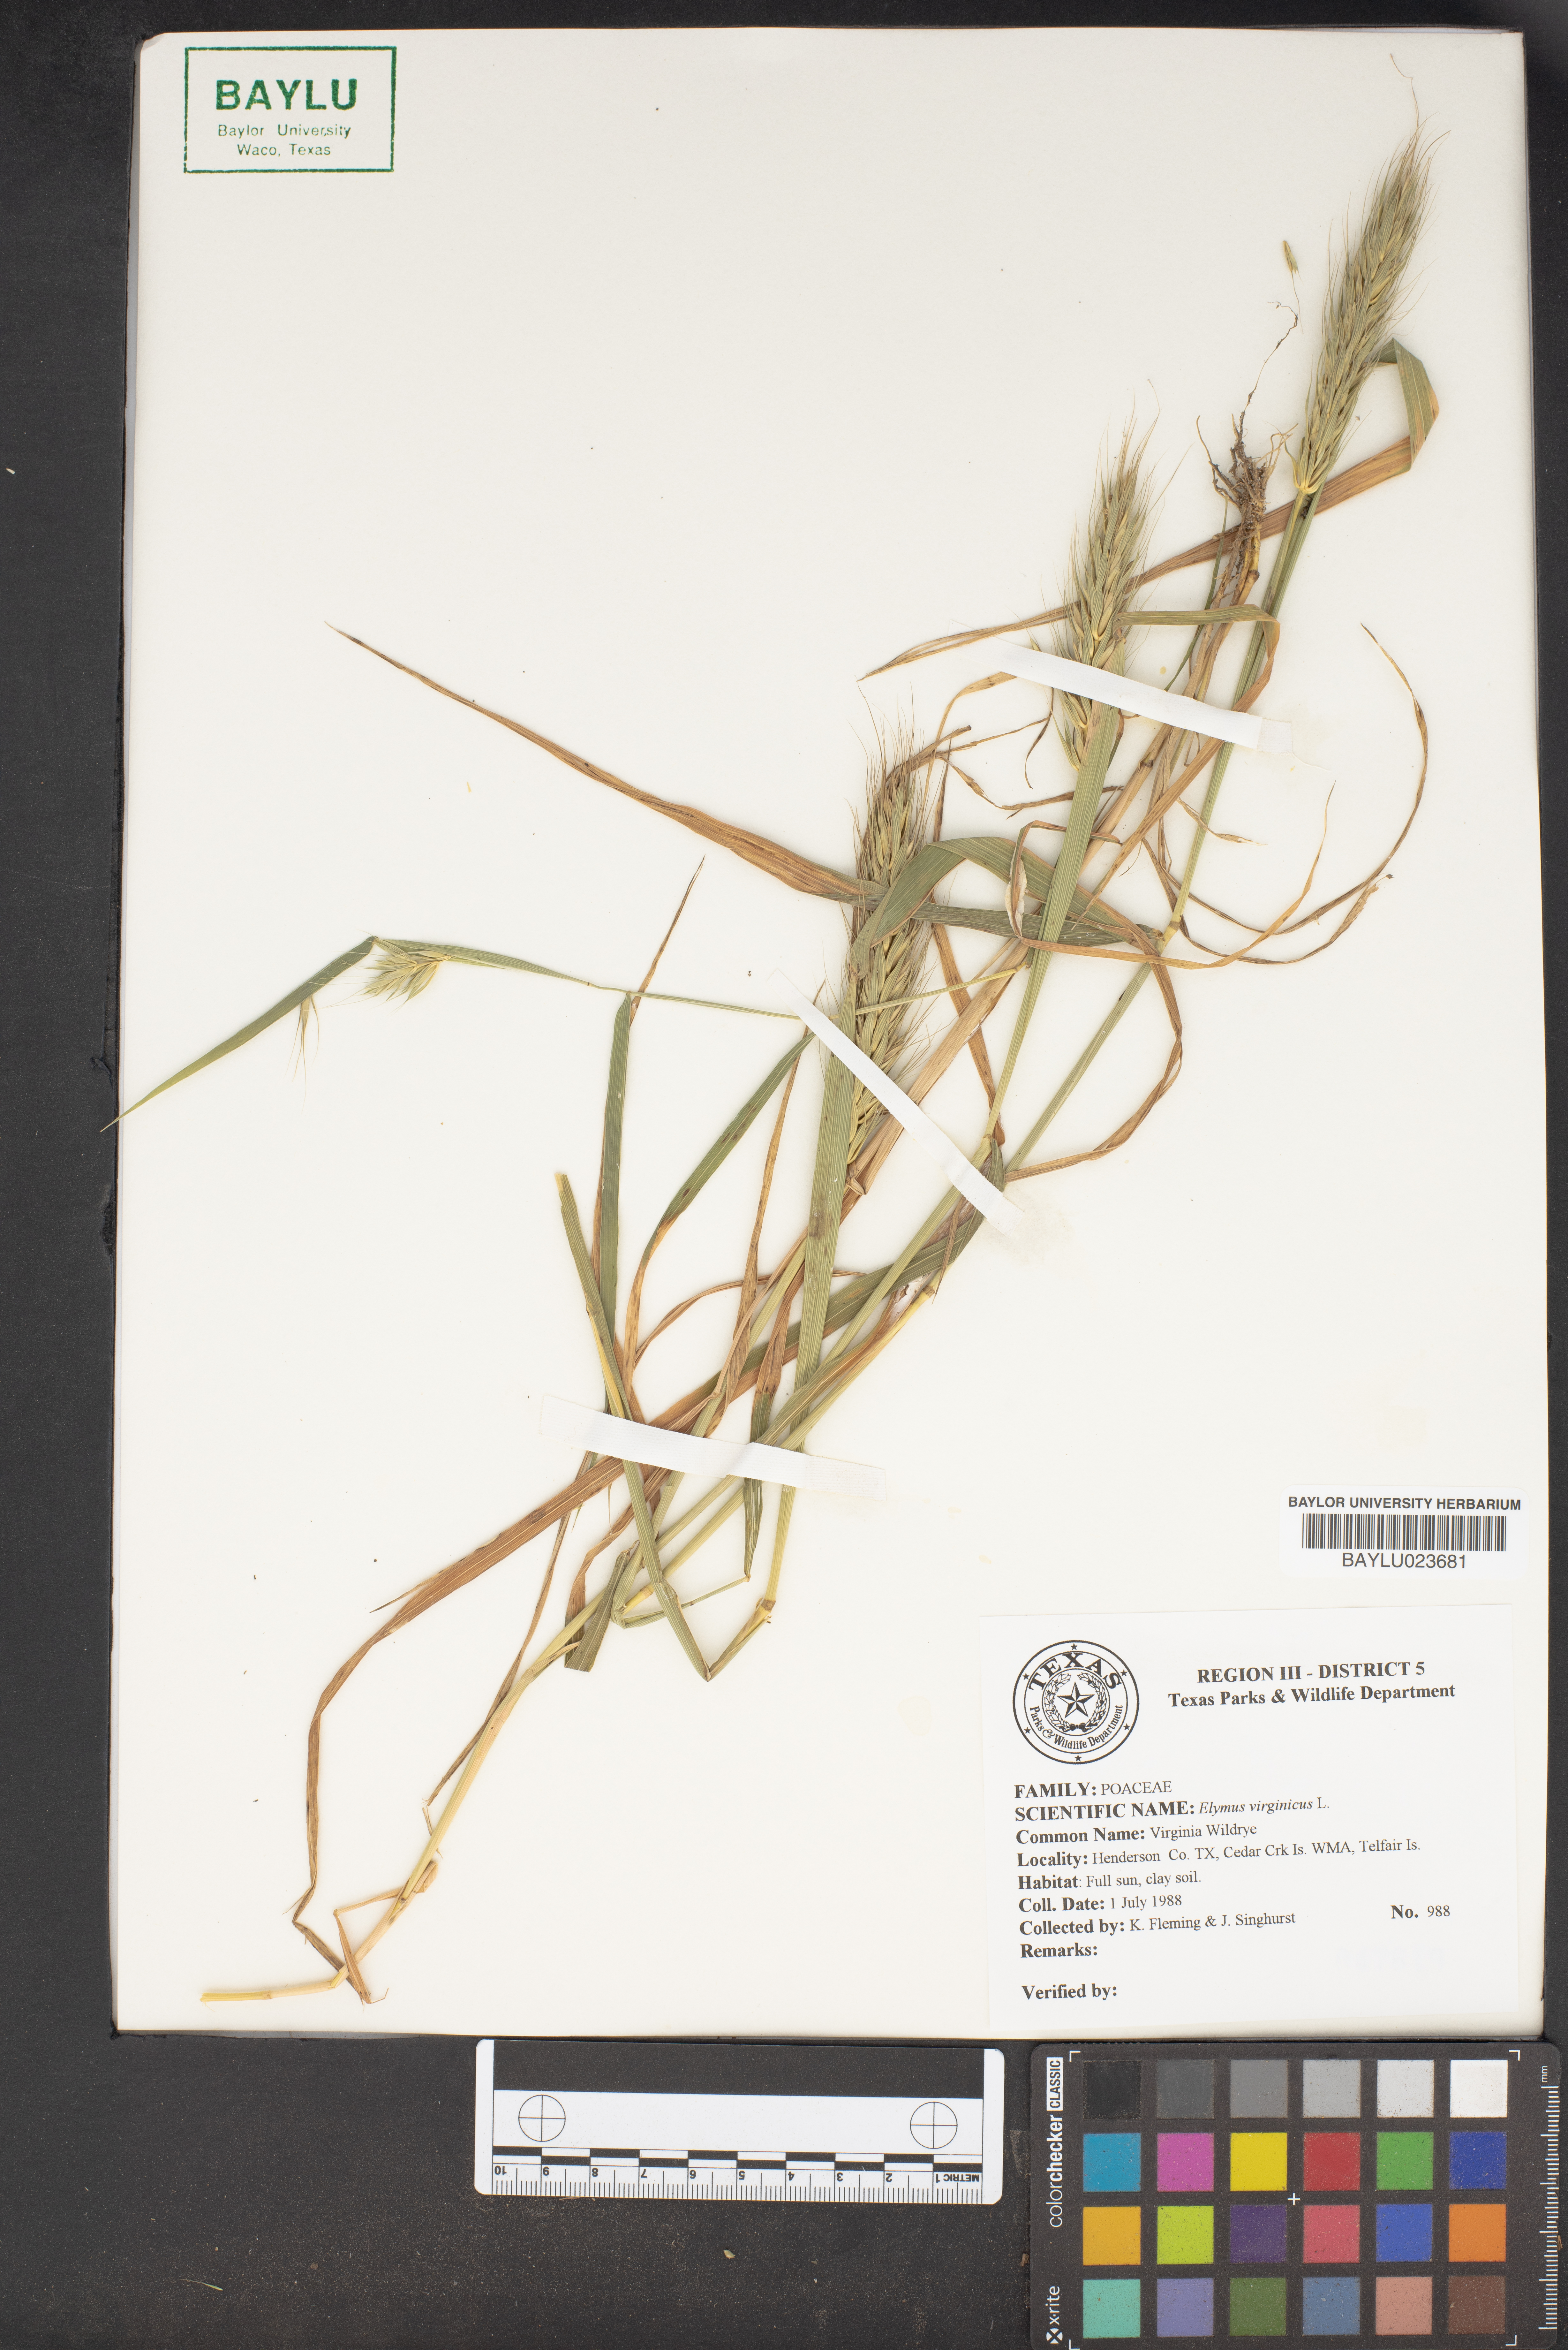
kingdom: Plantae
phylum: Tracheophyta
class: Liliopsida
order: Poales
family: Poaceae
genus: Elymus
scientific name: Elymus virginicus
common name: Common eastern wildrye
